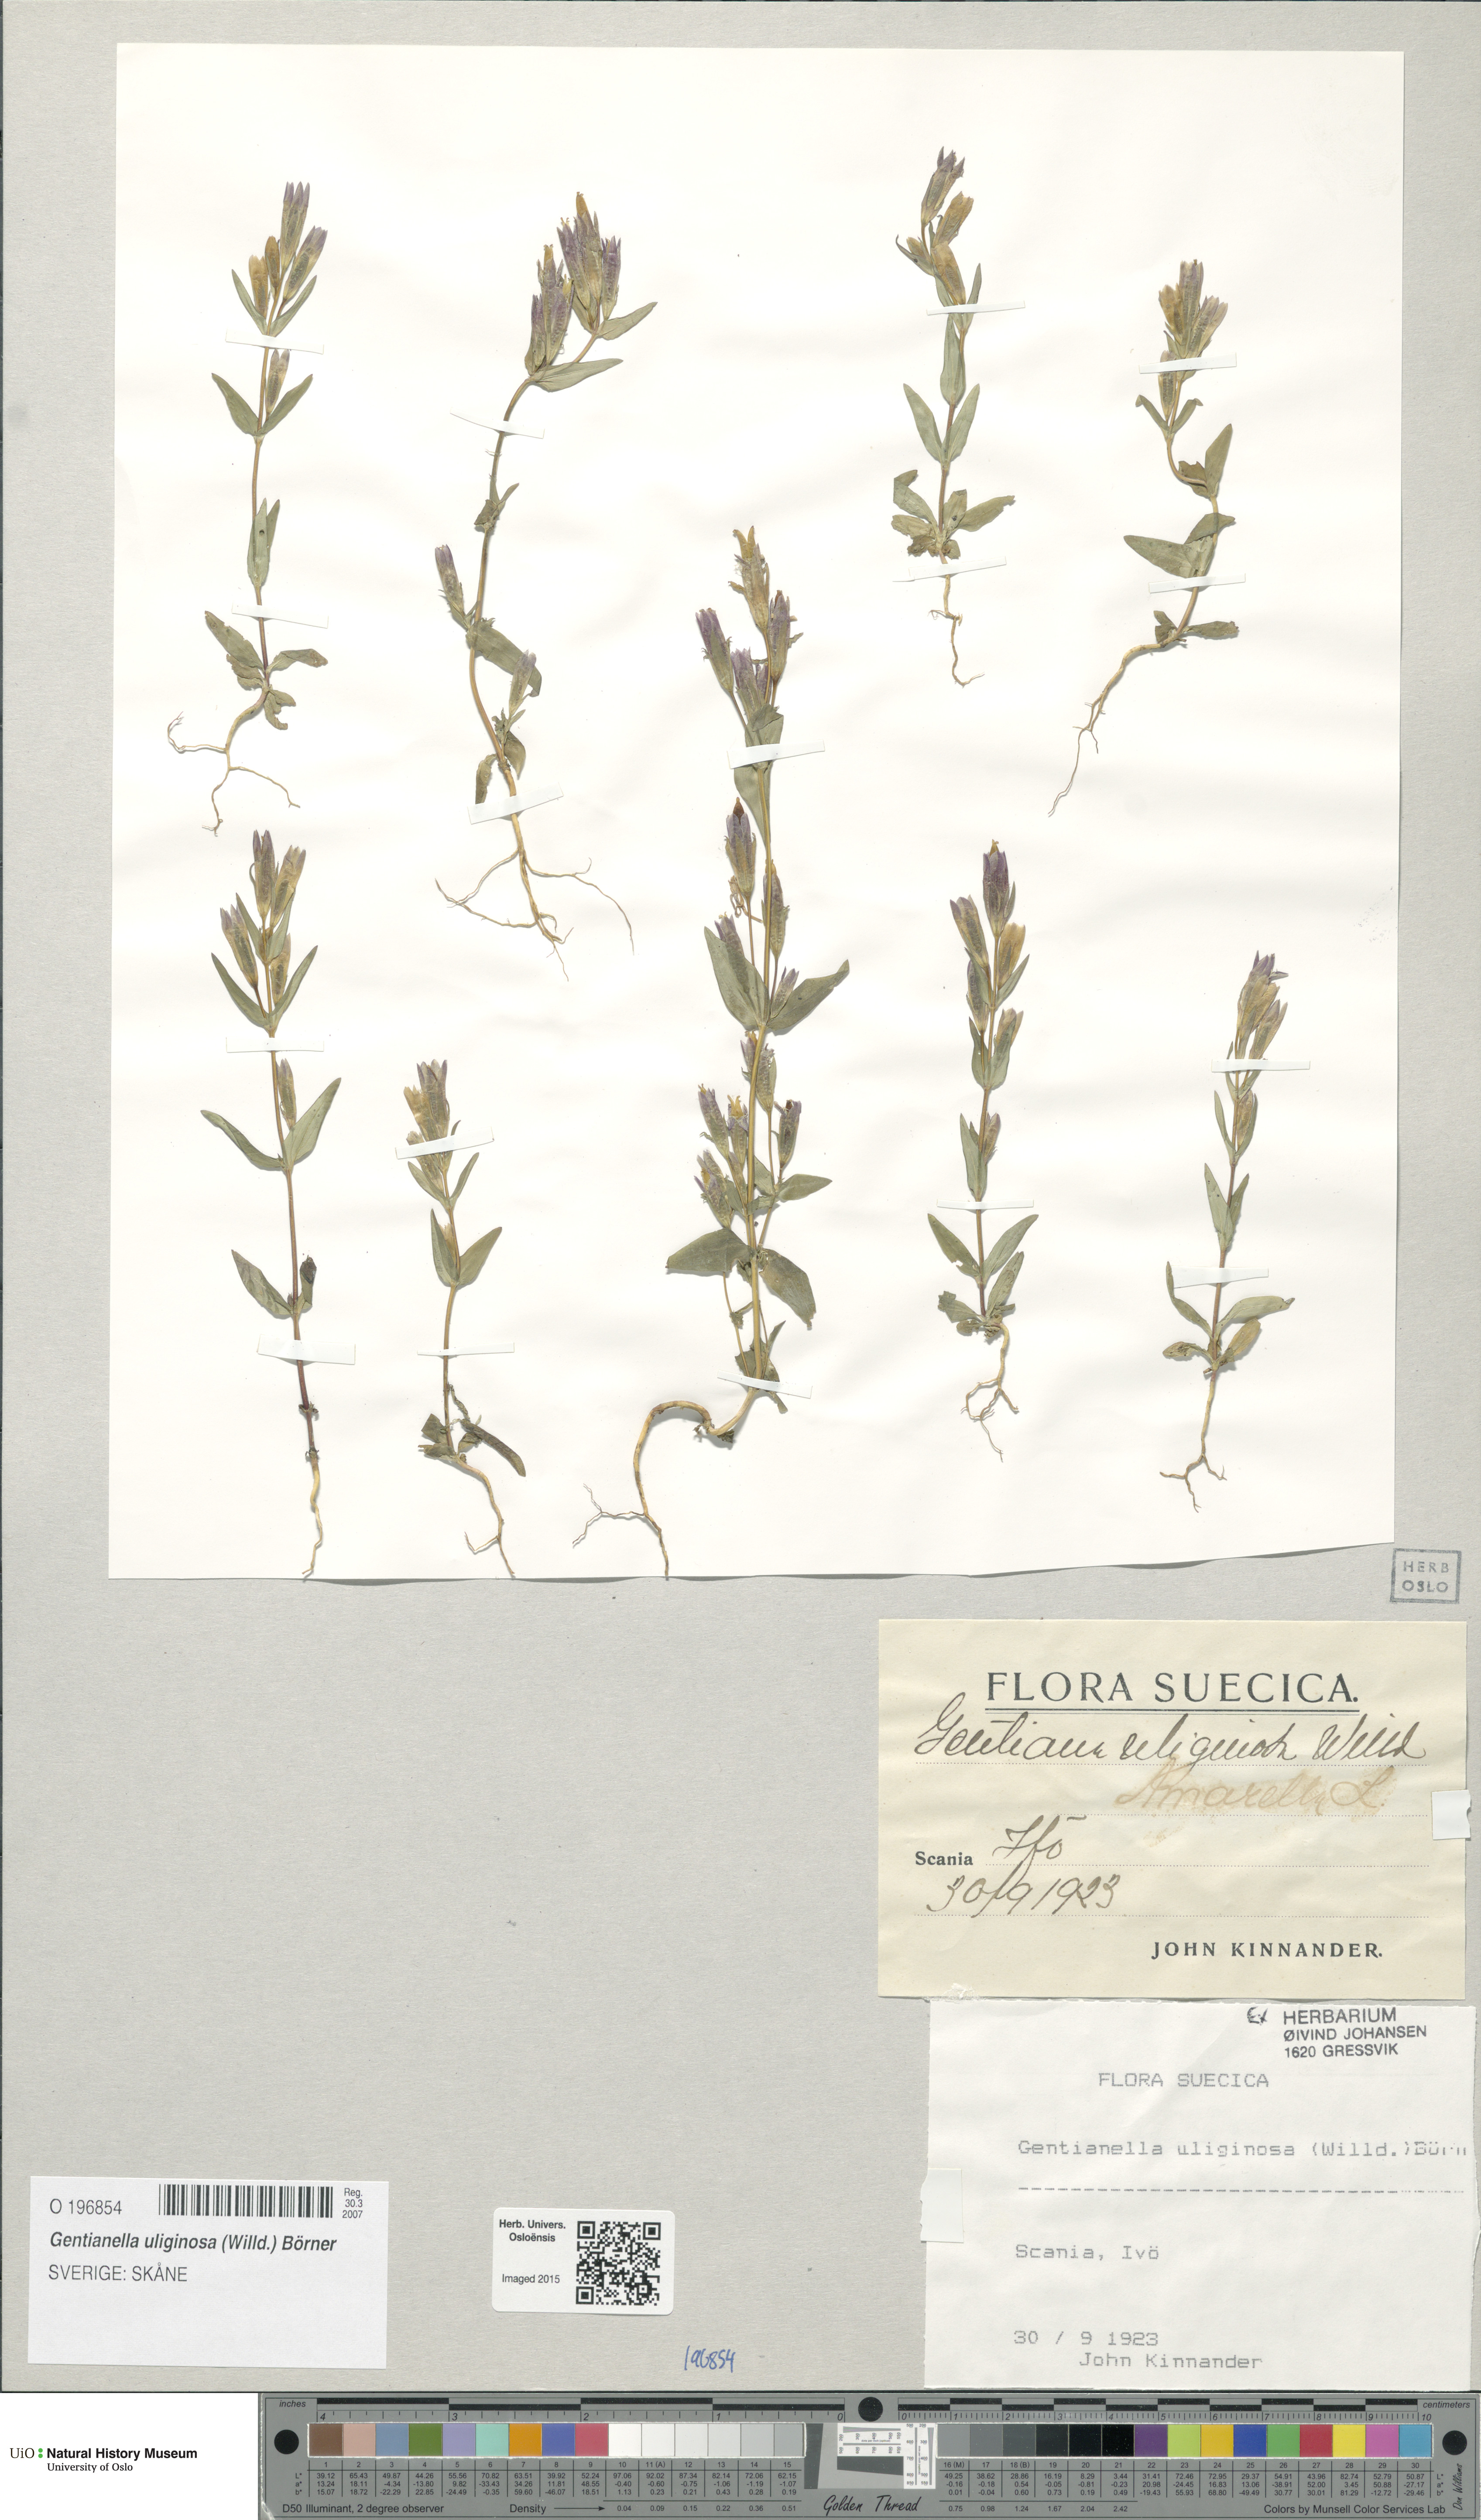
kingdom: Plantae
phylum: Tracheophyta
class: Magnoliopsida
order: Gentianales
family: Gentianaceae
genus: Gentianella
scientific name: Gentianella uliginosa
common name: Dune gentian
